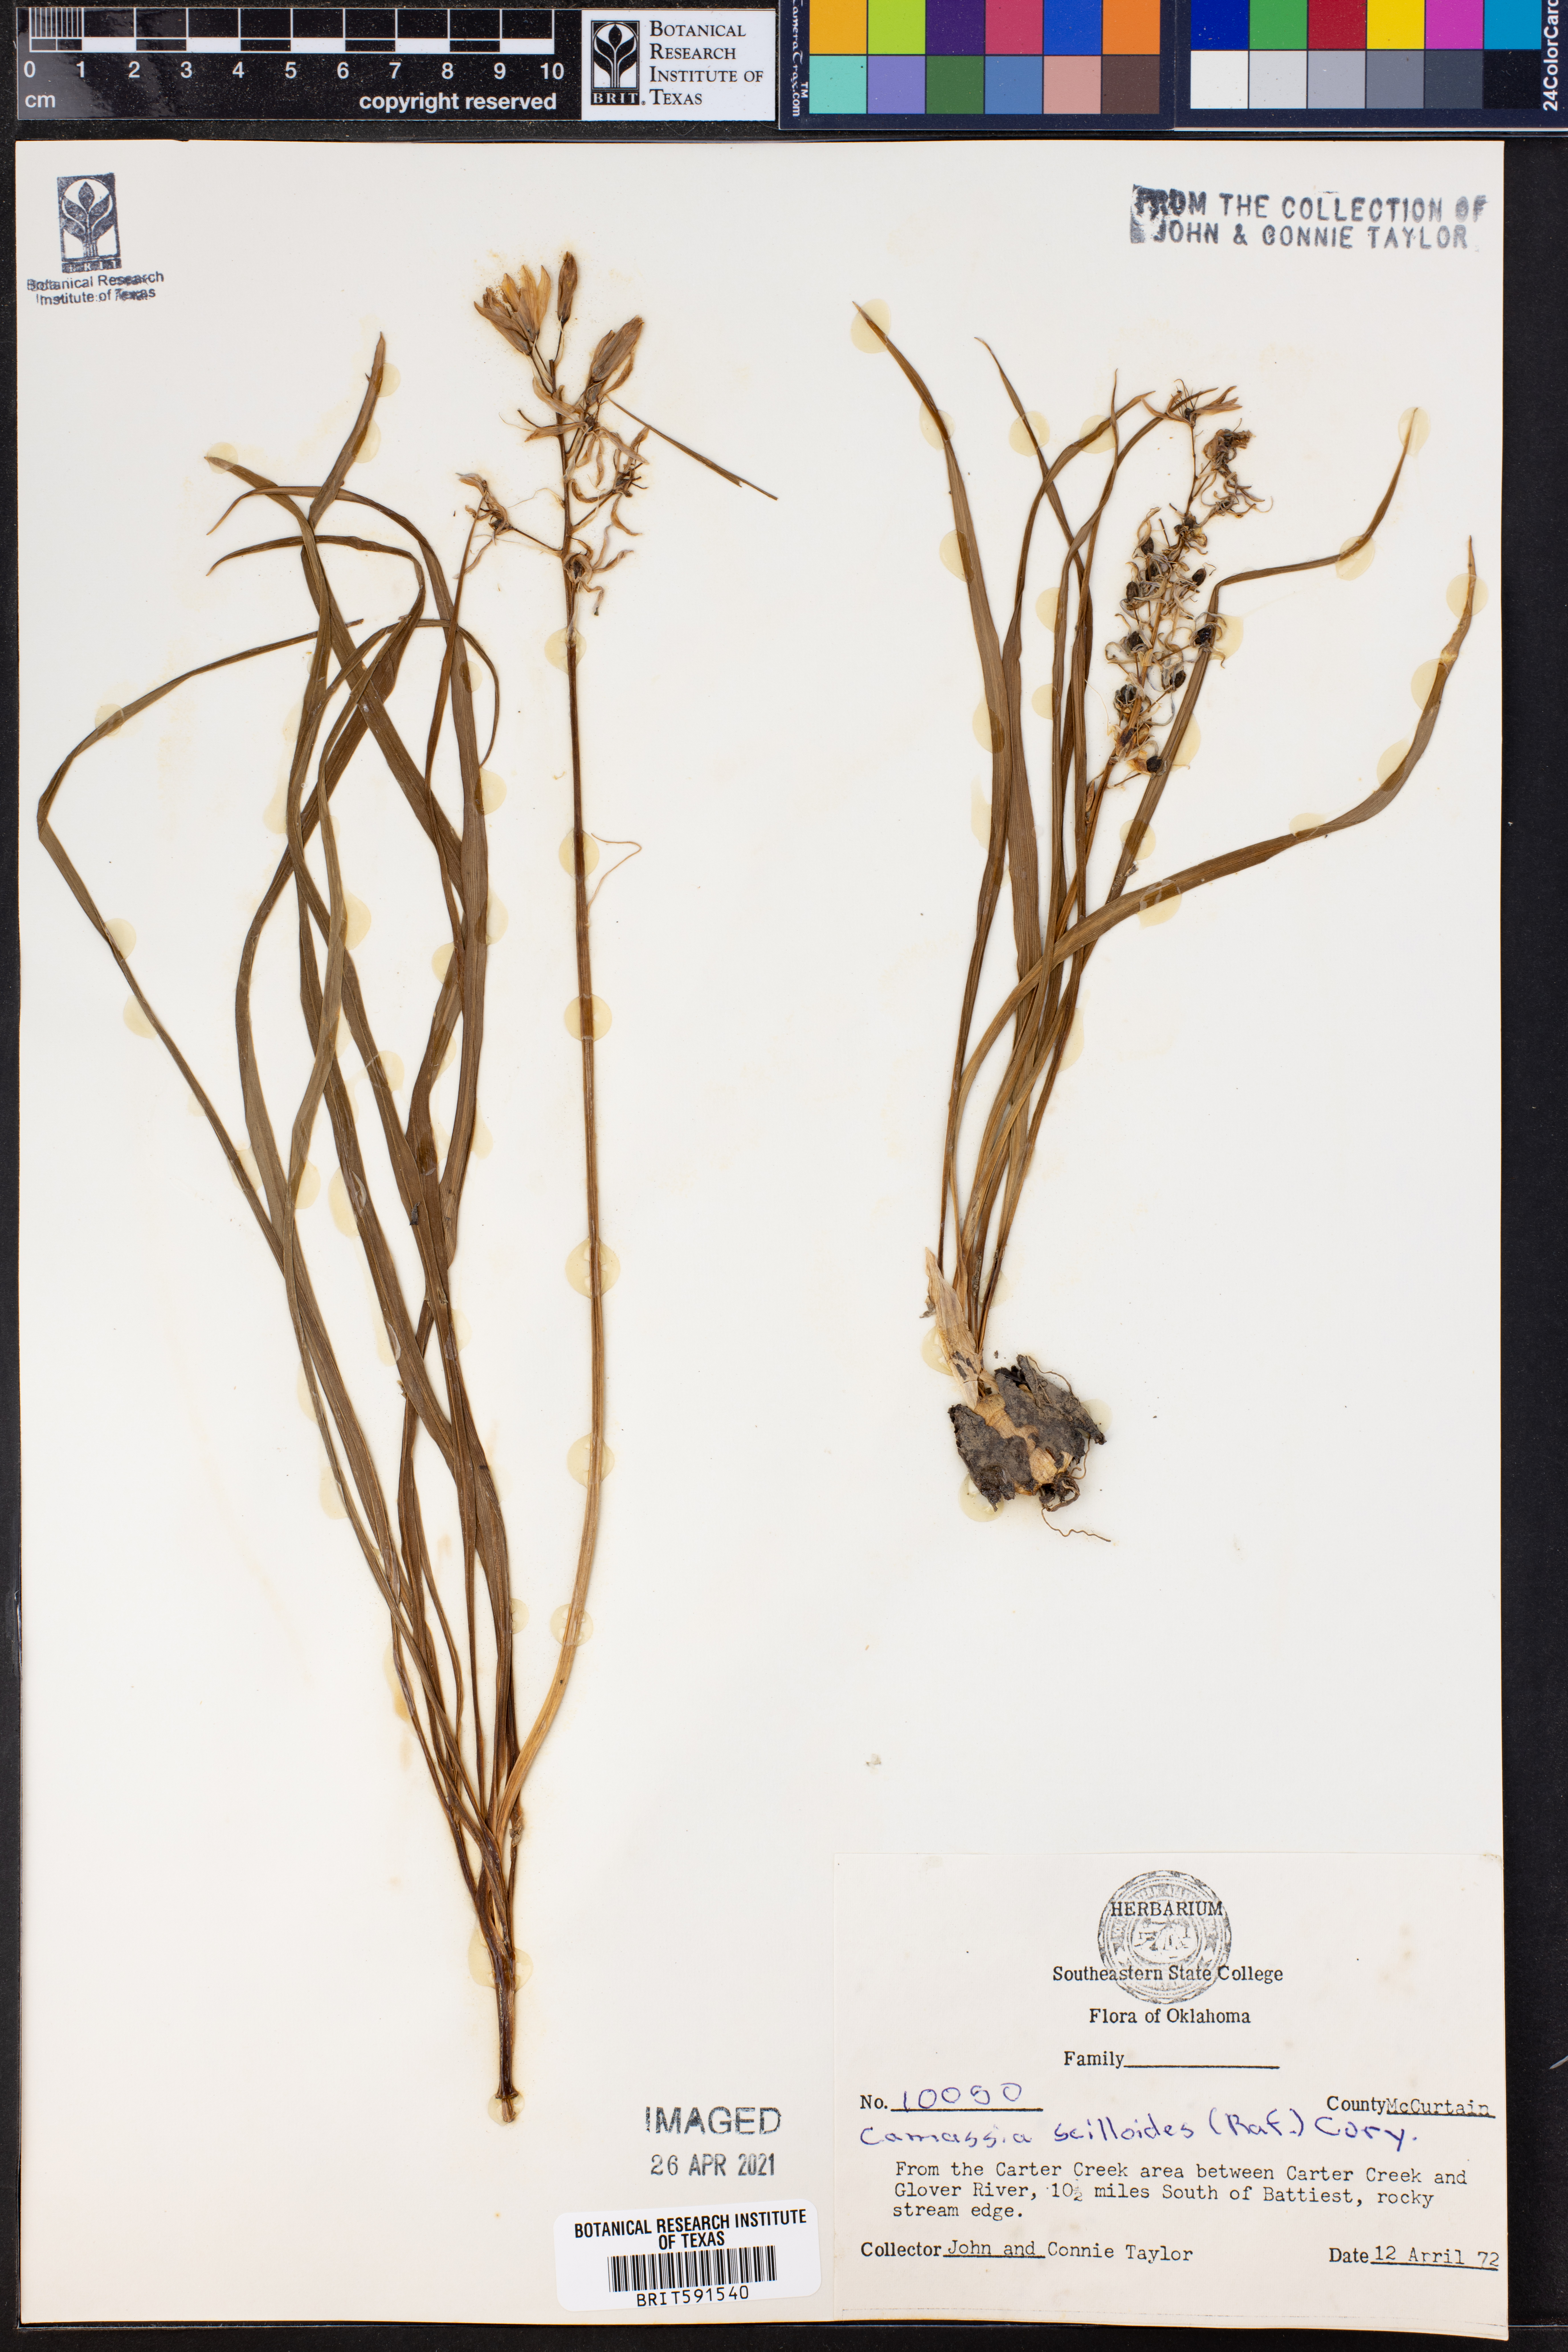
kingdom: Plantae
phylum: Tracheophyta
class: Liliopsida
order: Asparagales
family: Asparagaceae
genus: Camassia
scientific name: Camassia scilloides
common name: Wild hyacinth
